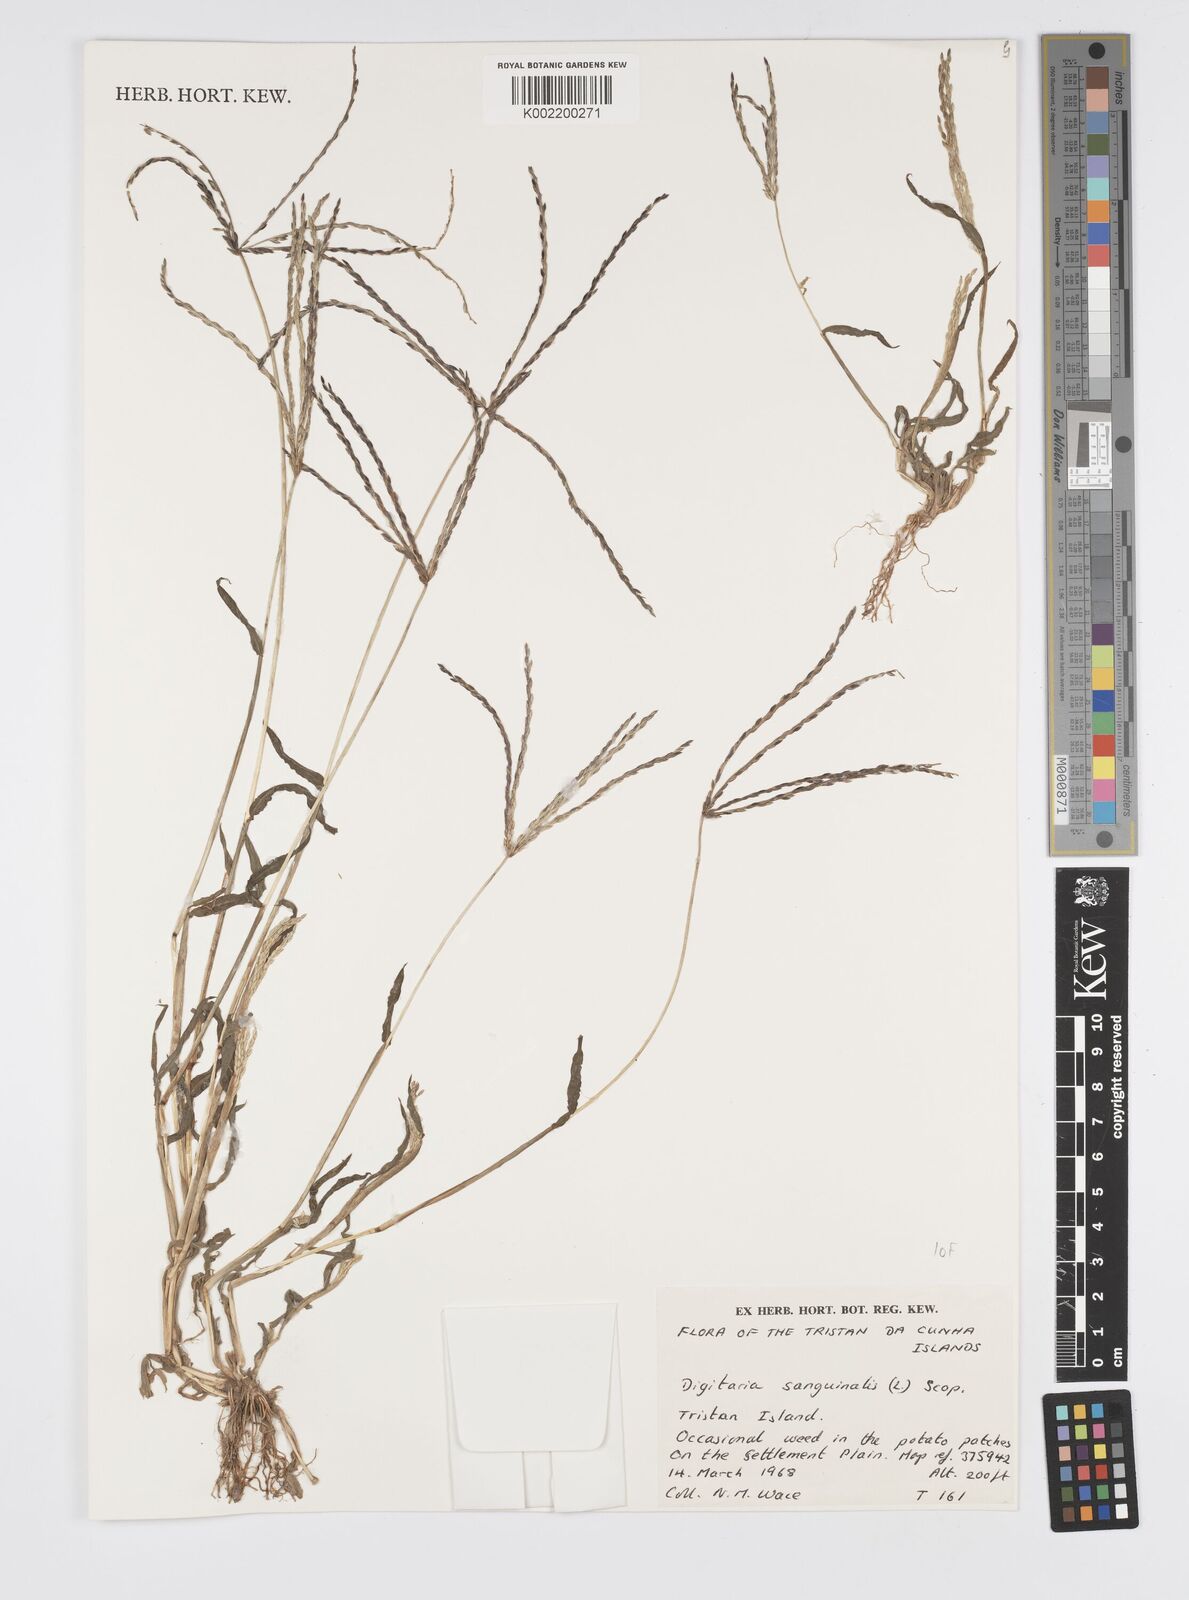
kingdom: Plantae
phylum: Tracheophyta
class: Liliopsida
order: Poales
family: Poaceae
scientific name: Poaceae
